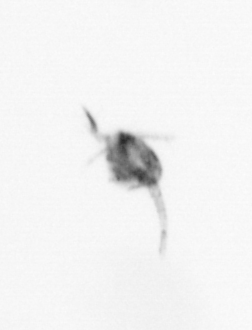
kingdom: Animalia
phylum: Arthropoda
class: Copepoda
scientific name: Copepoda
